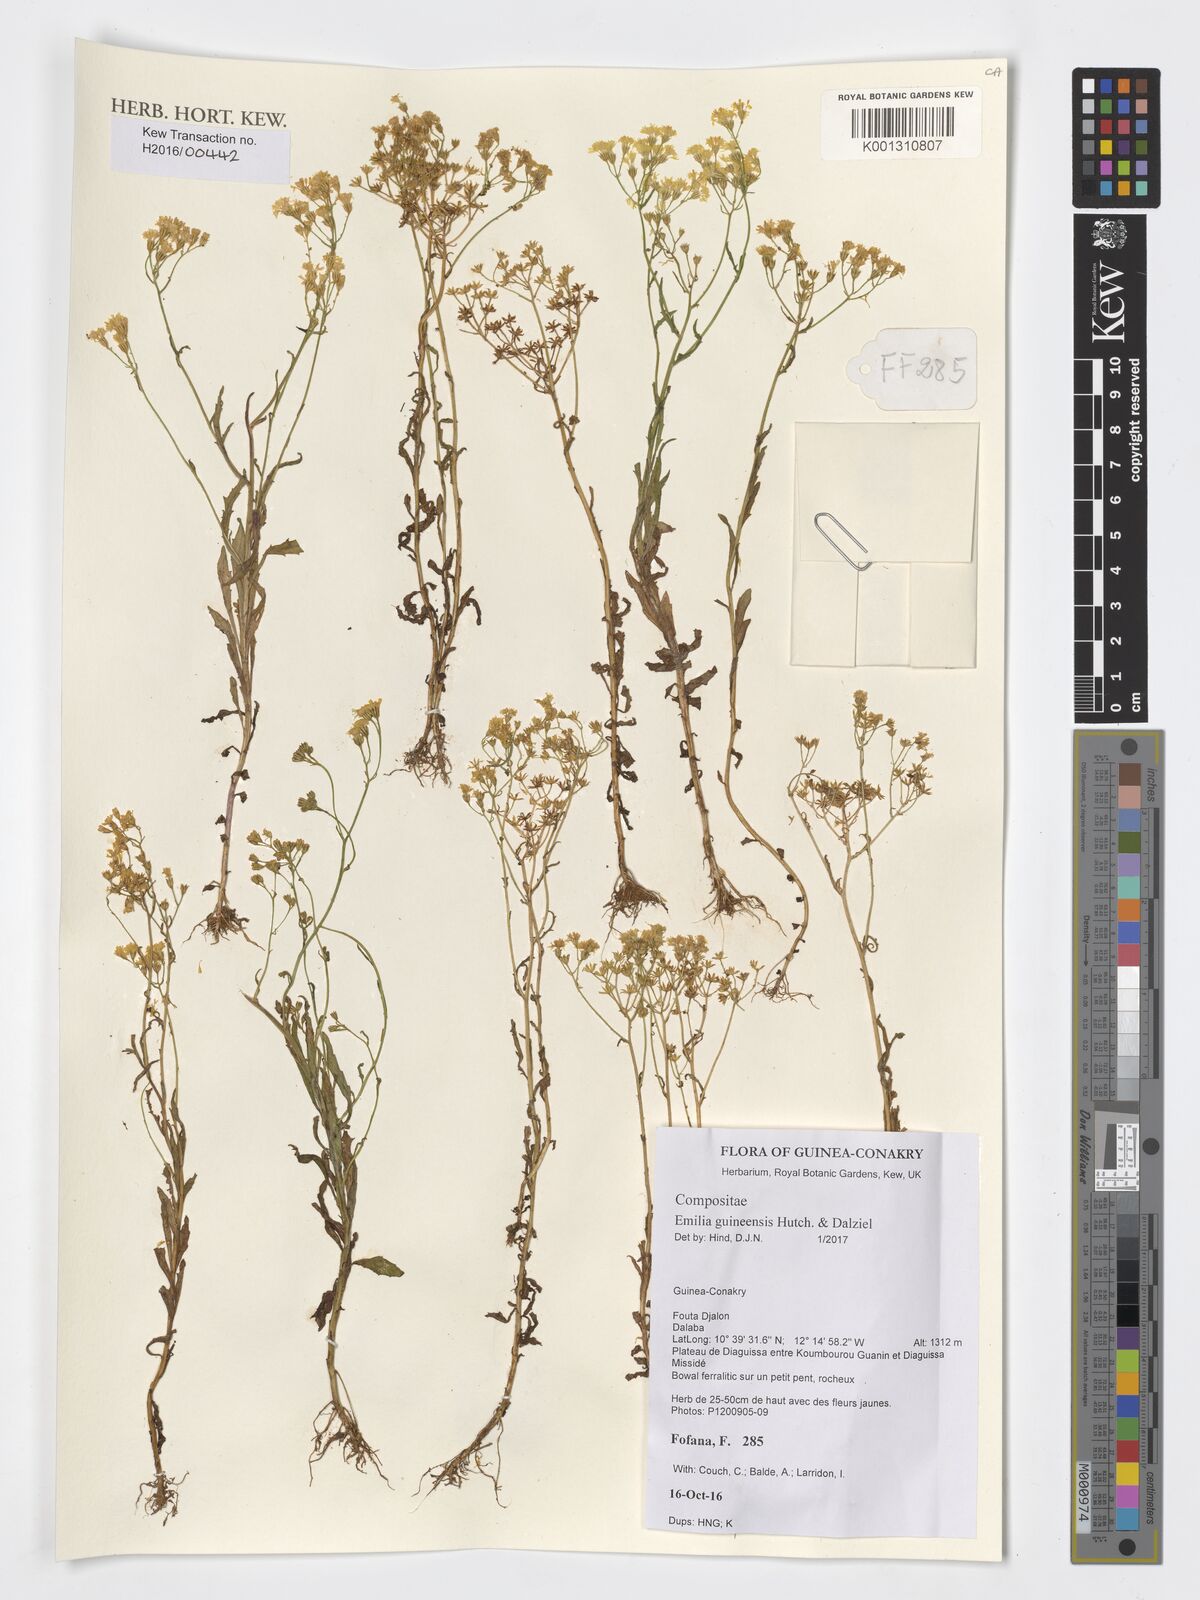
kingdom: Plantae
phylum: Tracheophyta
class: Magnoliopsida
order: Asterales
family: Asteraceae
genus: Emilia
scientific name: Emilia guineensis
